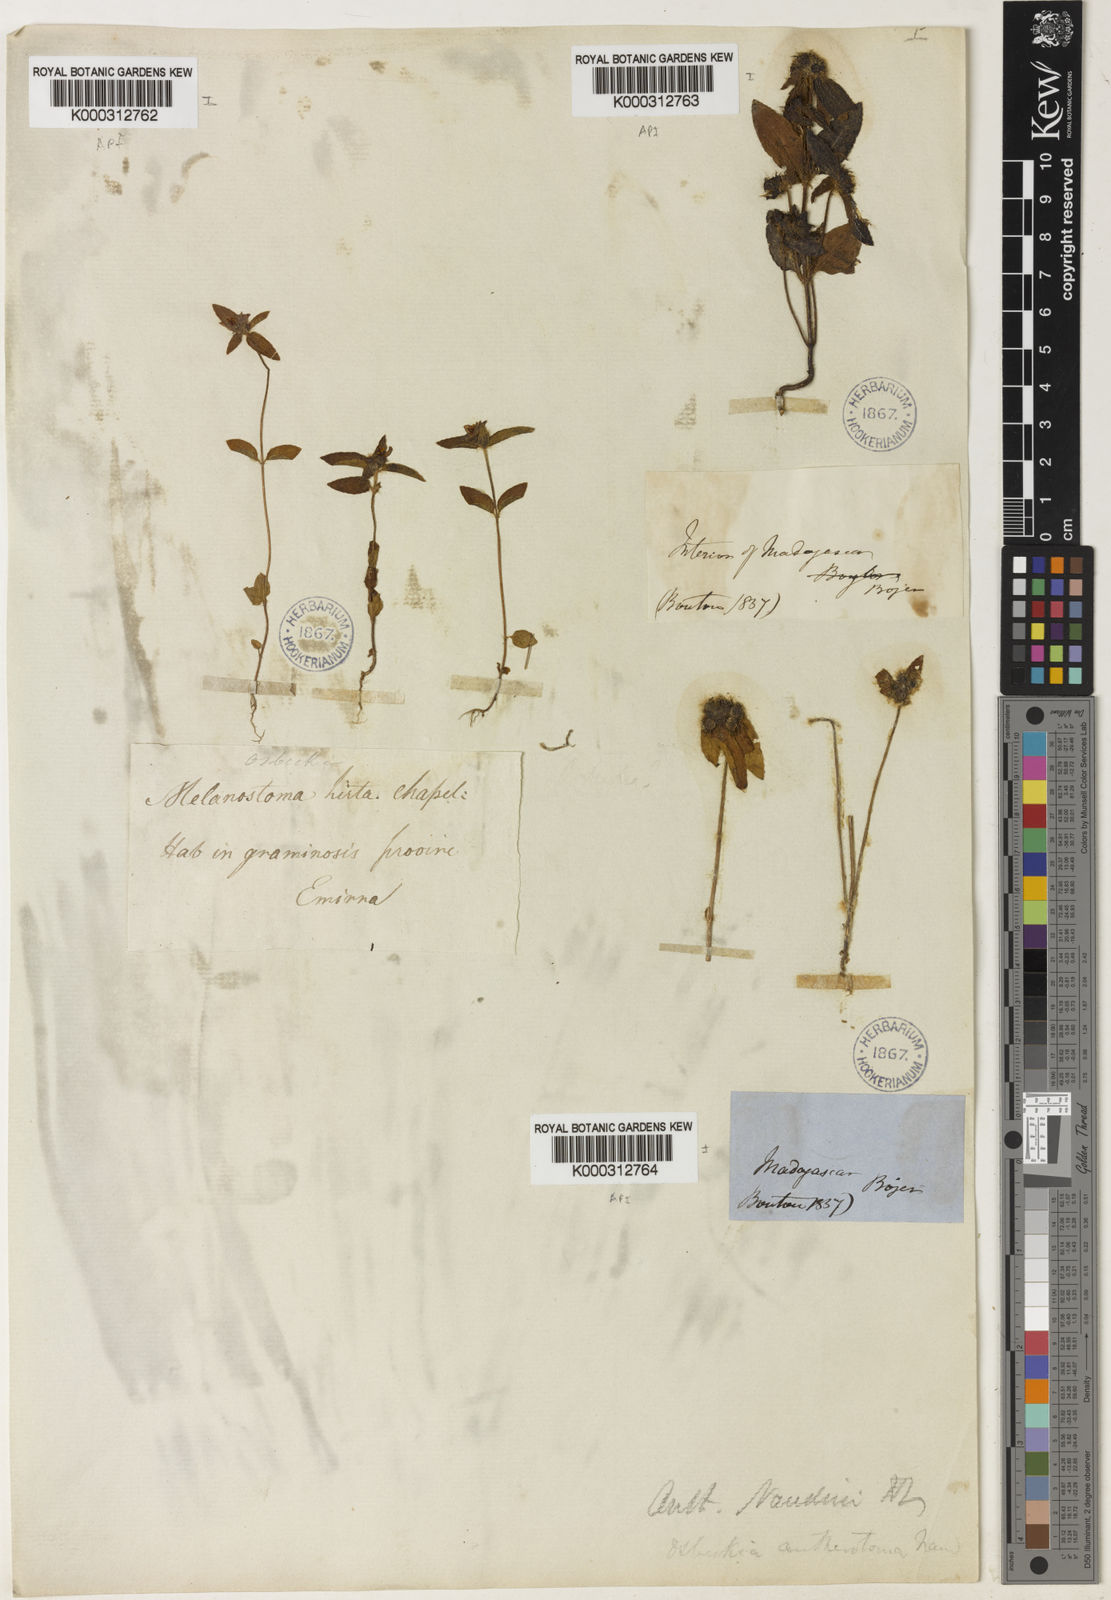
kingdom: Plantae
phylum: Tracheophyta
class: Magnoliopsida
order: Myrtales
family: Melastomataceae
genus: Antherotoma
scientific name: Antherotoma naudinii
